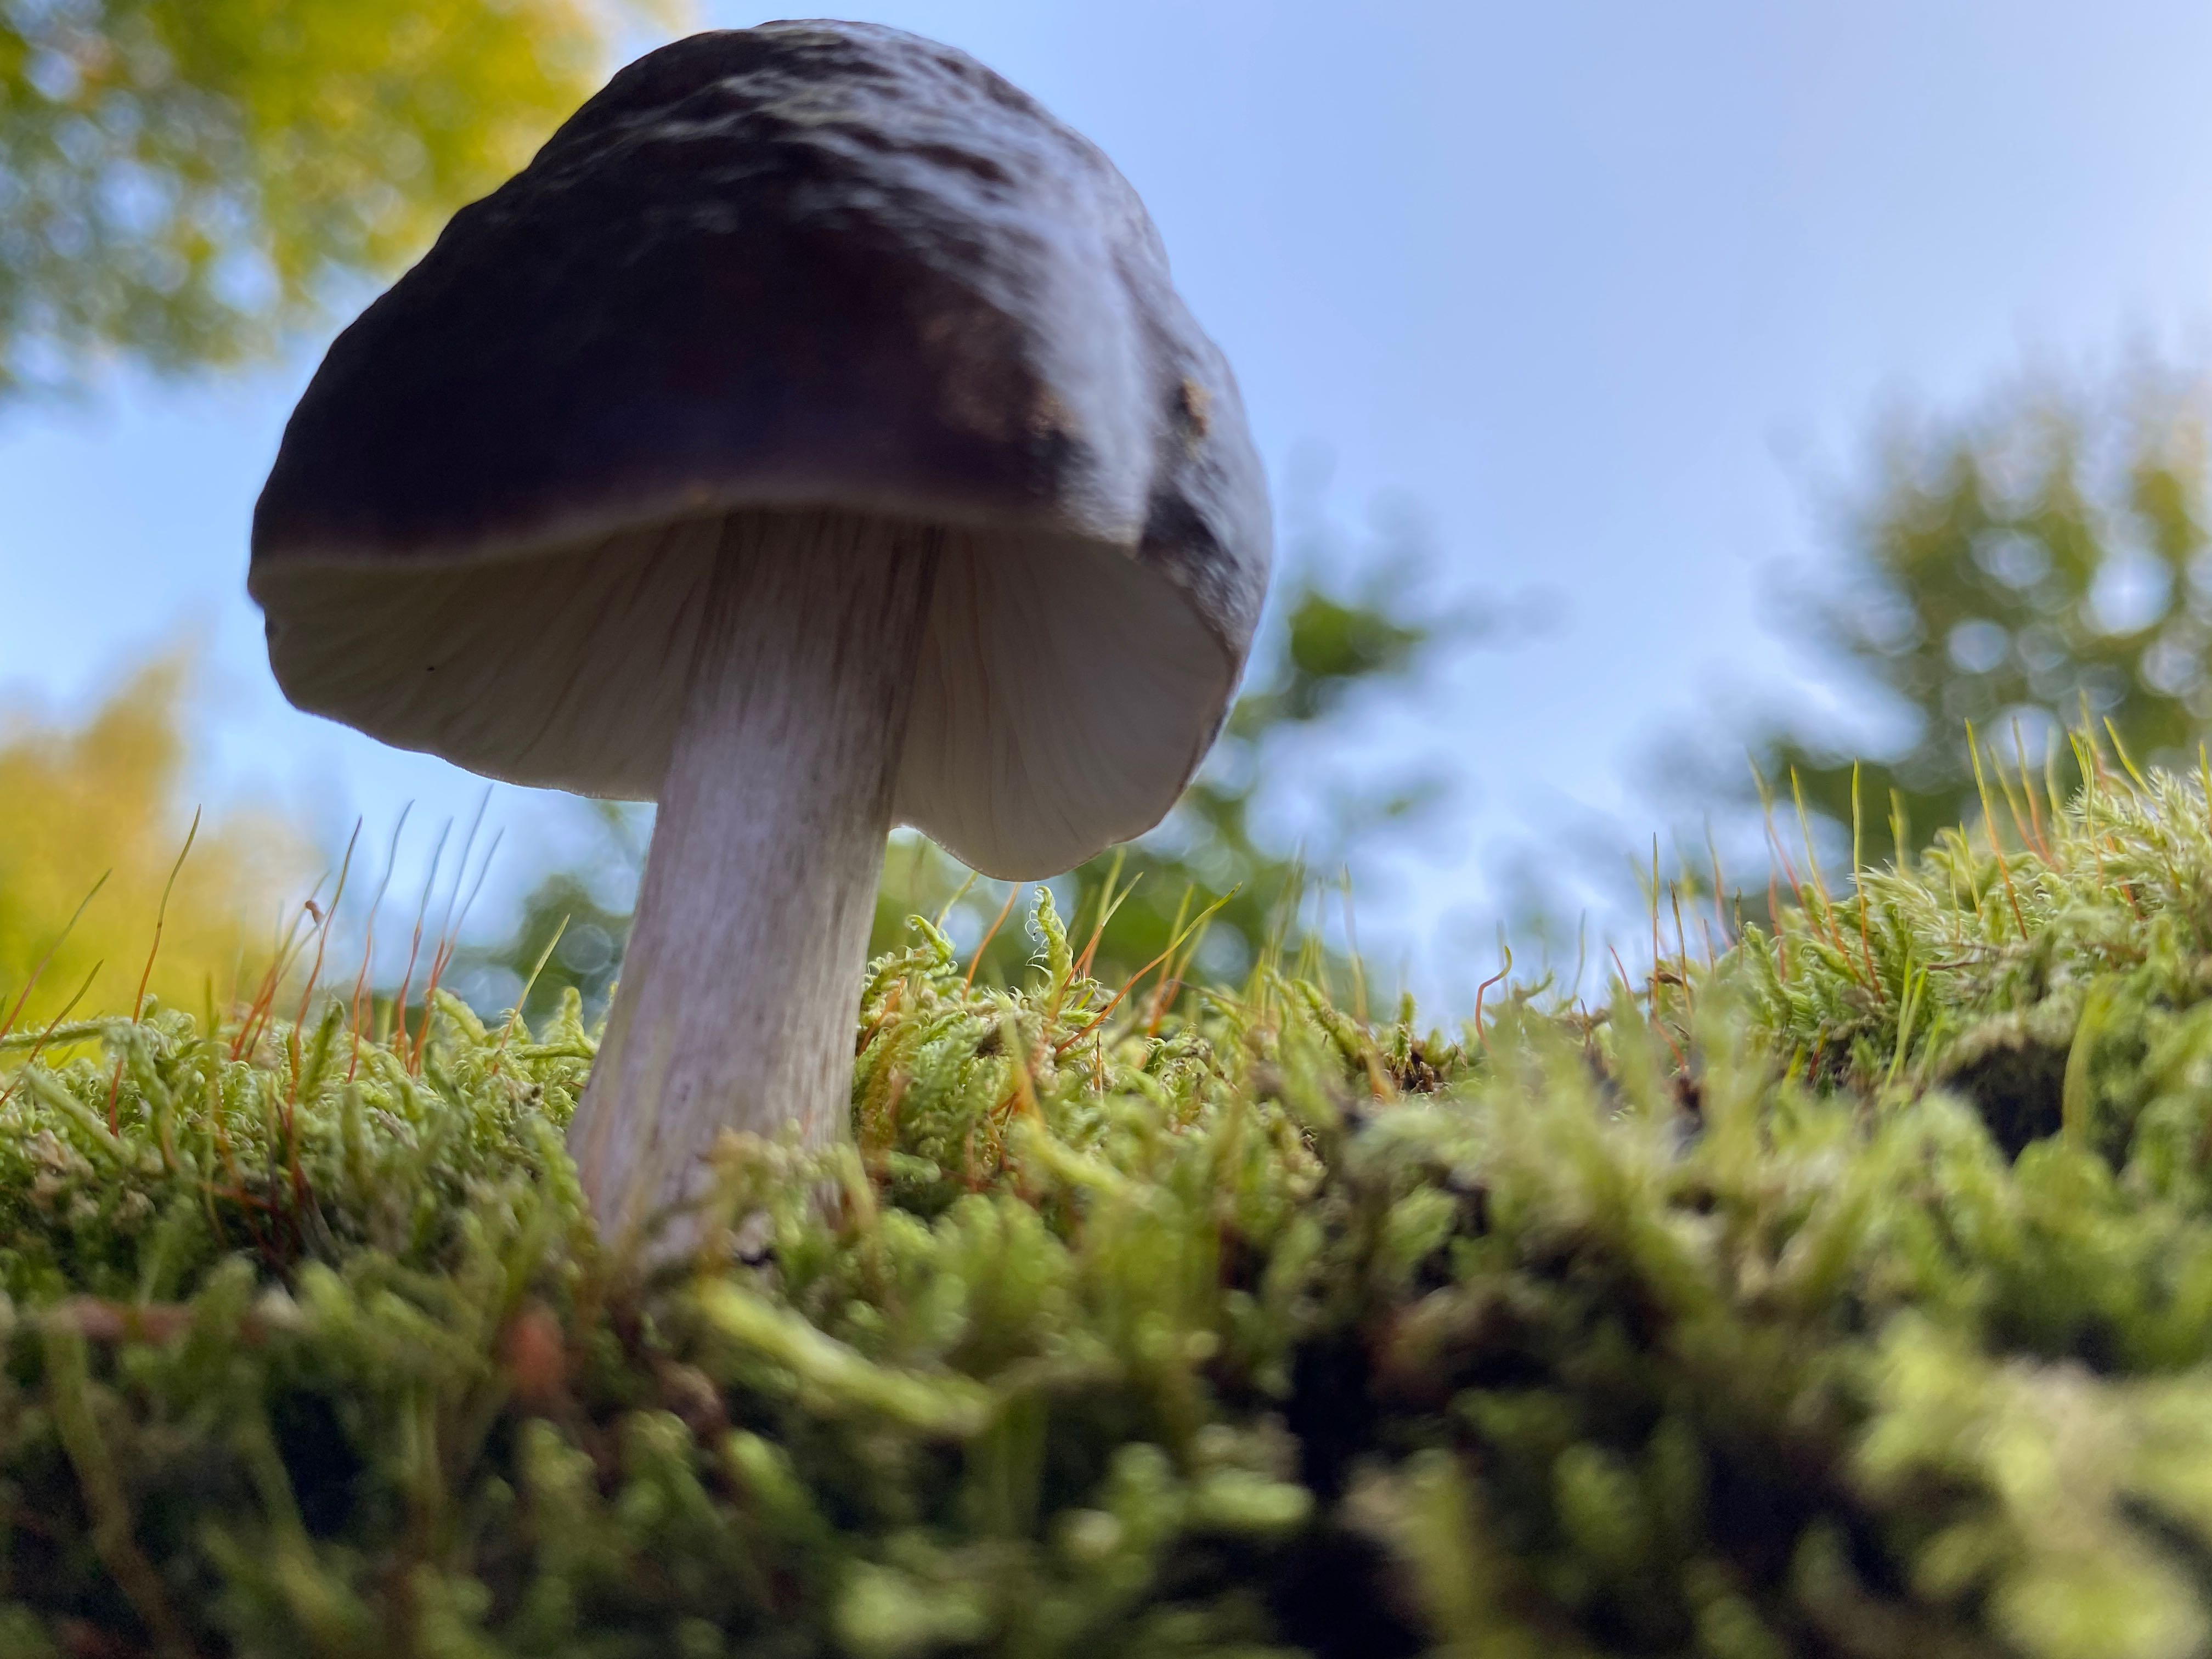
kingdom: Fungi
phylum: Basidiomycota
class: Agaricomycetes
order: Agaricales
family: Pluteaceae
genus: Pluteus
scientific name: Pluteus cervinus
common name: sodfarvet skærmhat
